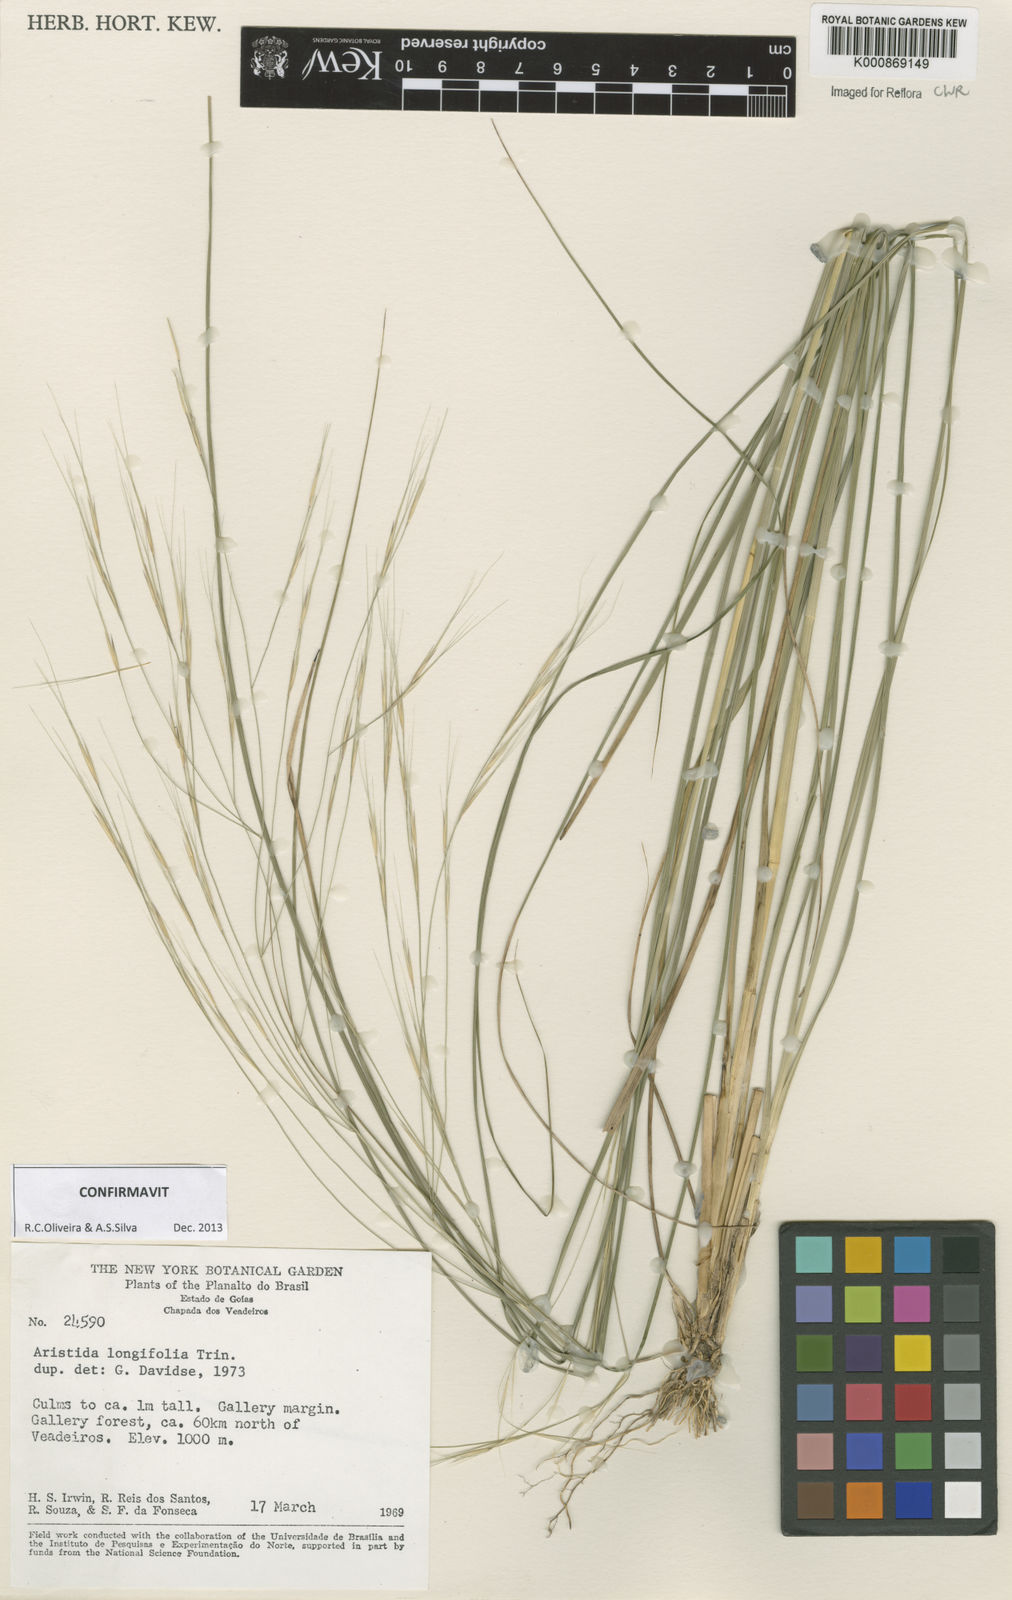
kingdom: Plantae
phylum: Tracheophyta
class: Liliopsida
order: Poales
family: Poaceae
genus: Aristida
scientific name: Aristida longifolia
